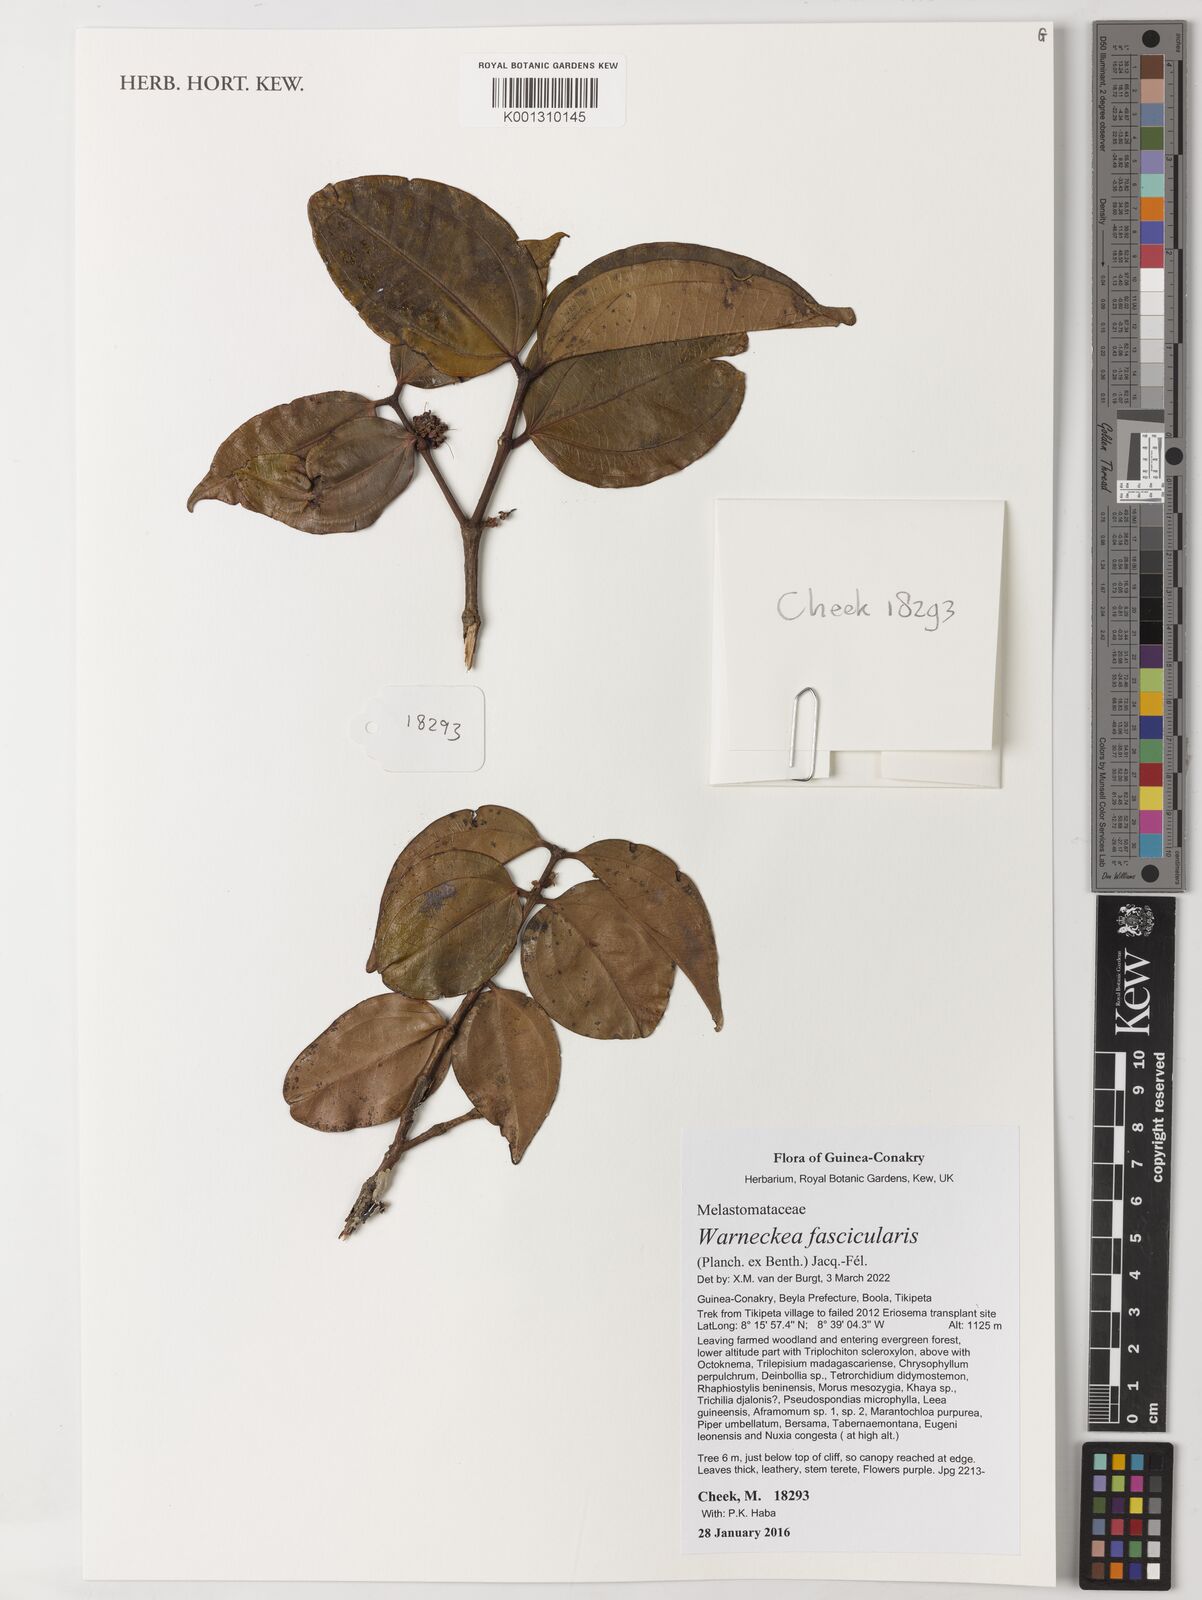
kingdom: Plantae
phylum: Tracheophyta
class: Magnoliopsida
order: Myrtales
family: Melastomataceae
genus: Warneckea
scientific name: Warneckea fascicularis
